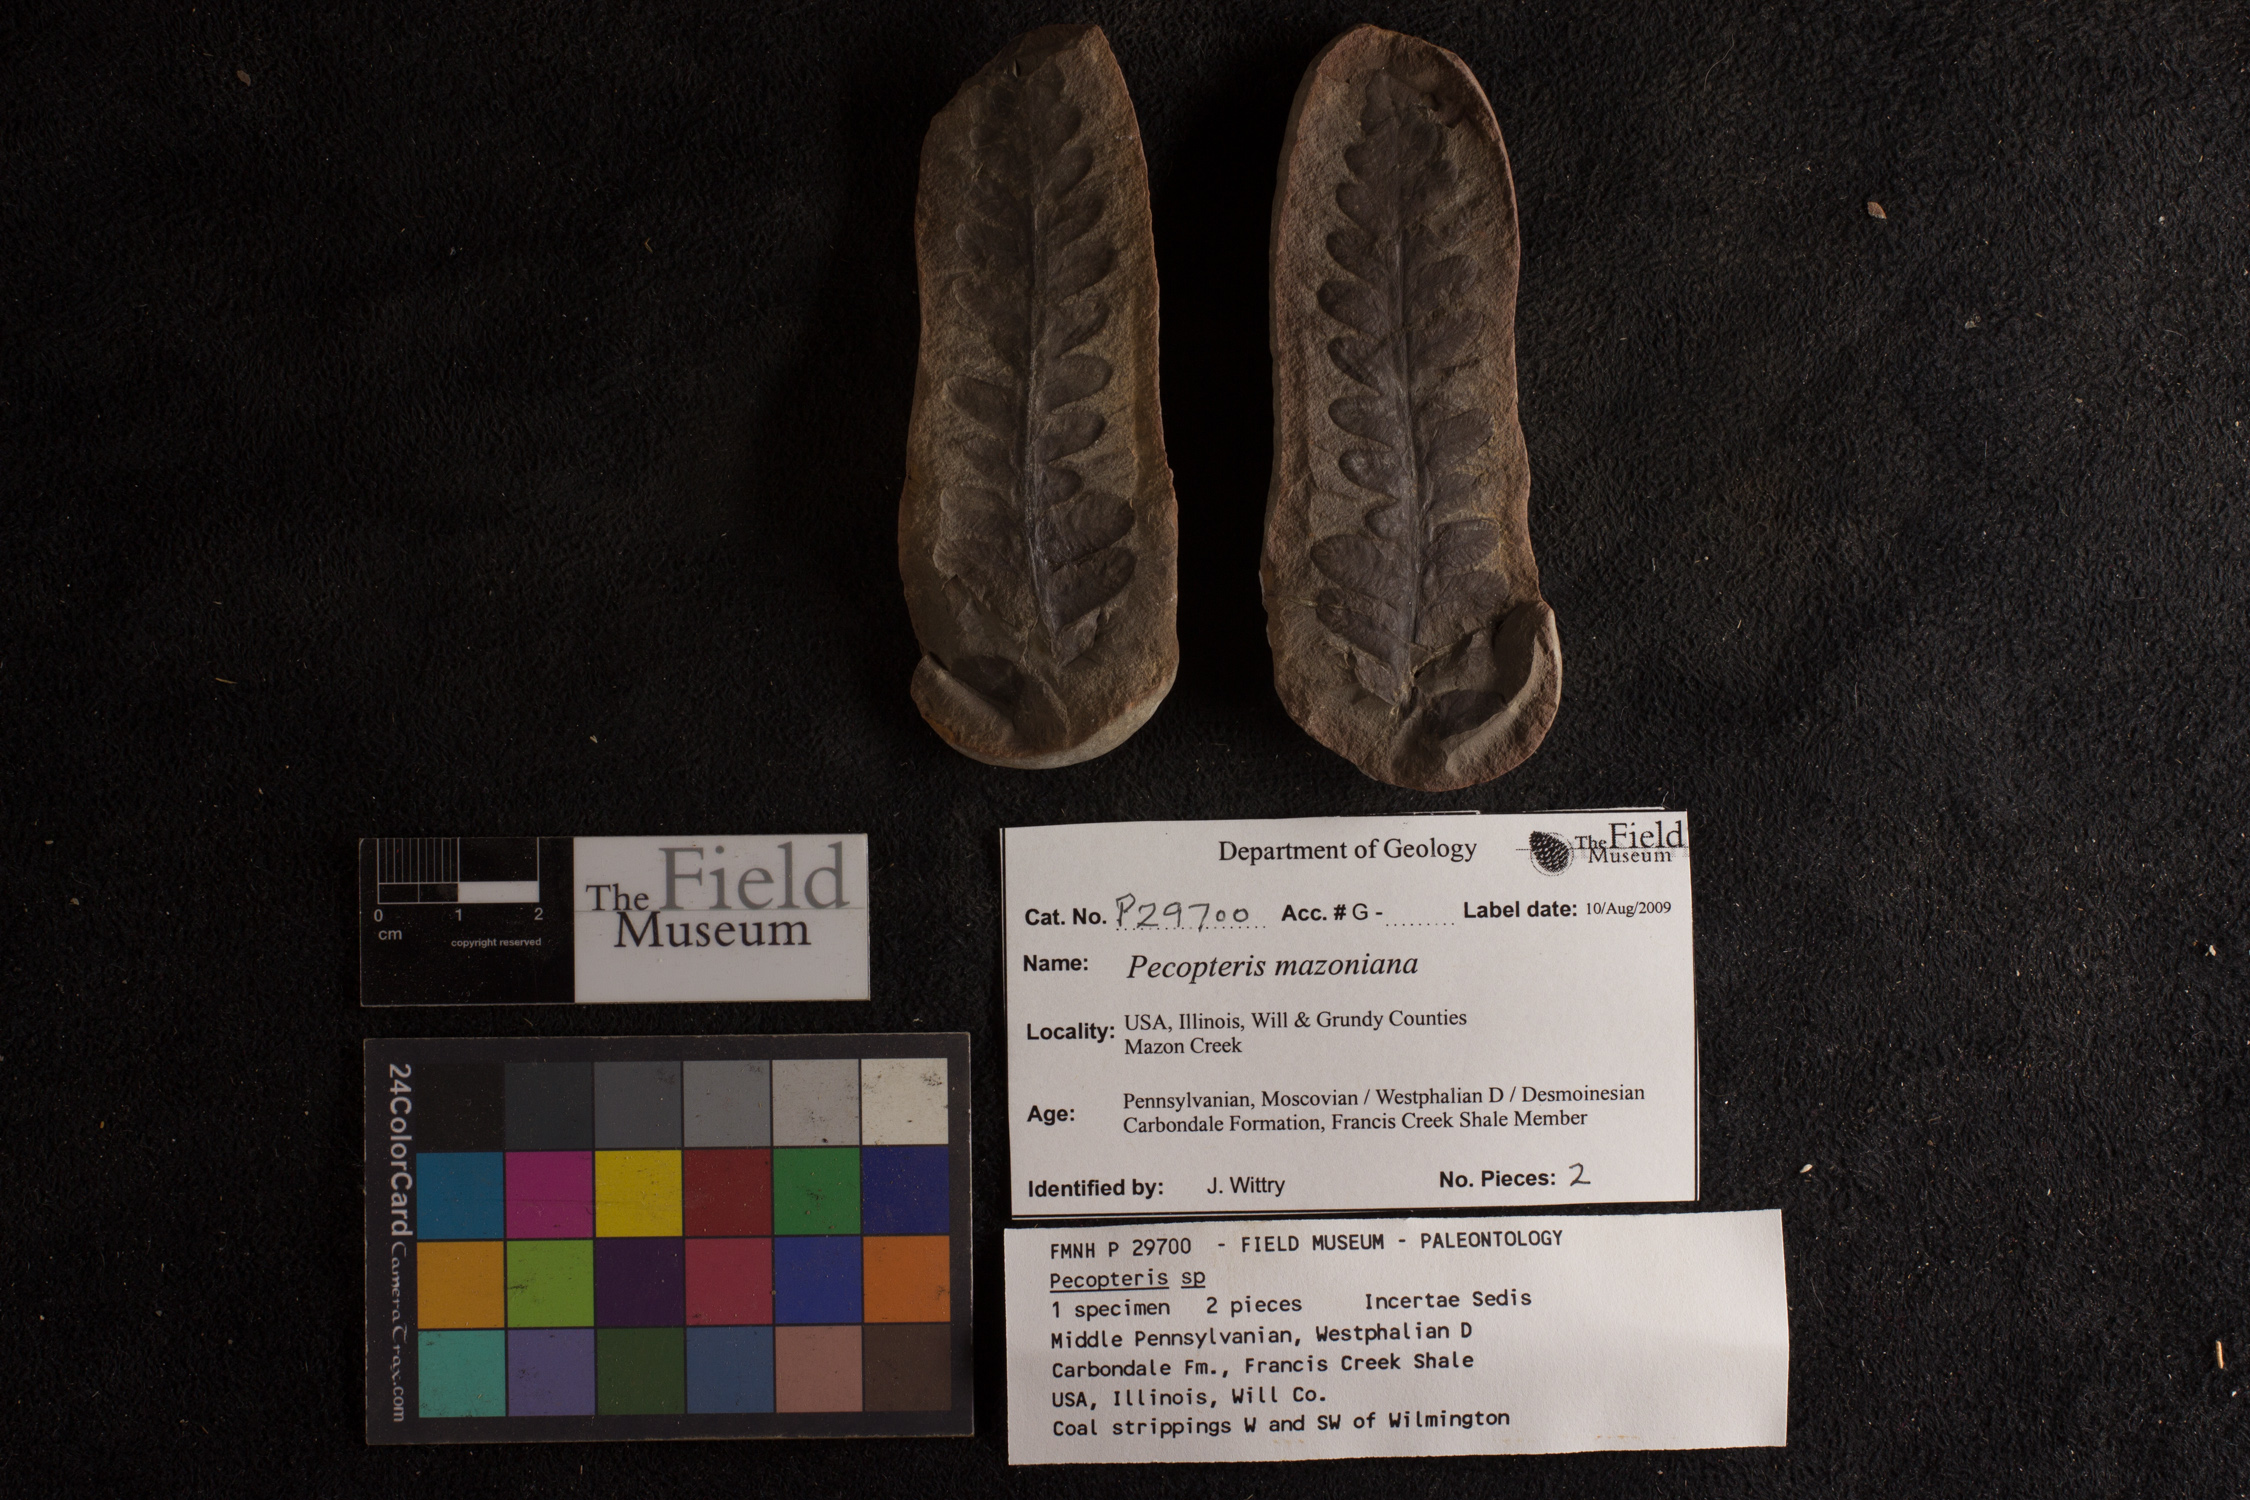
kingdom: Plantae
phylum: Tracheophyta
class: Polypodiopsida
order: Marattiales
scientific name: Marattiales
